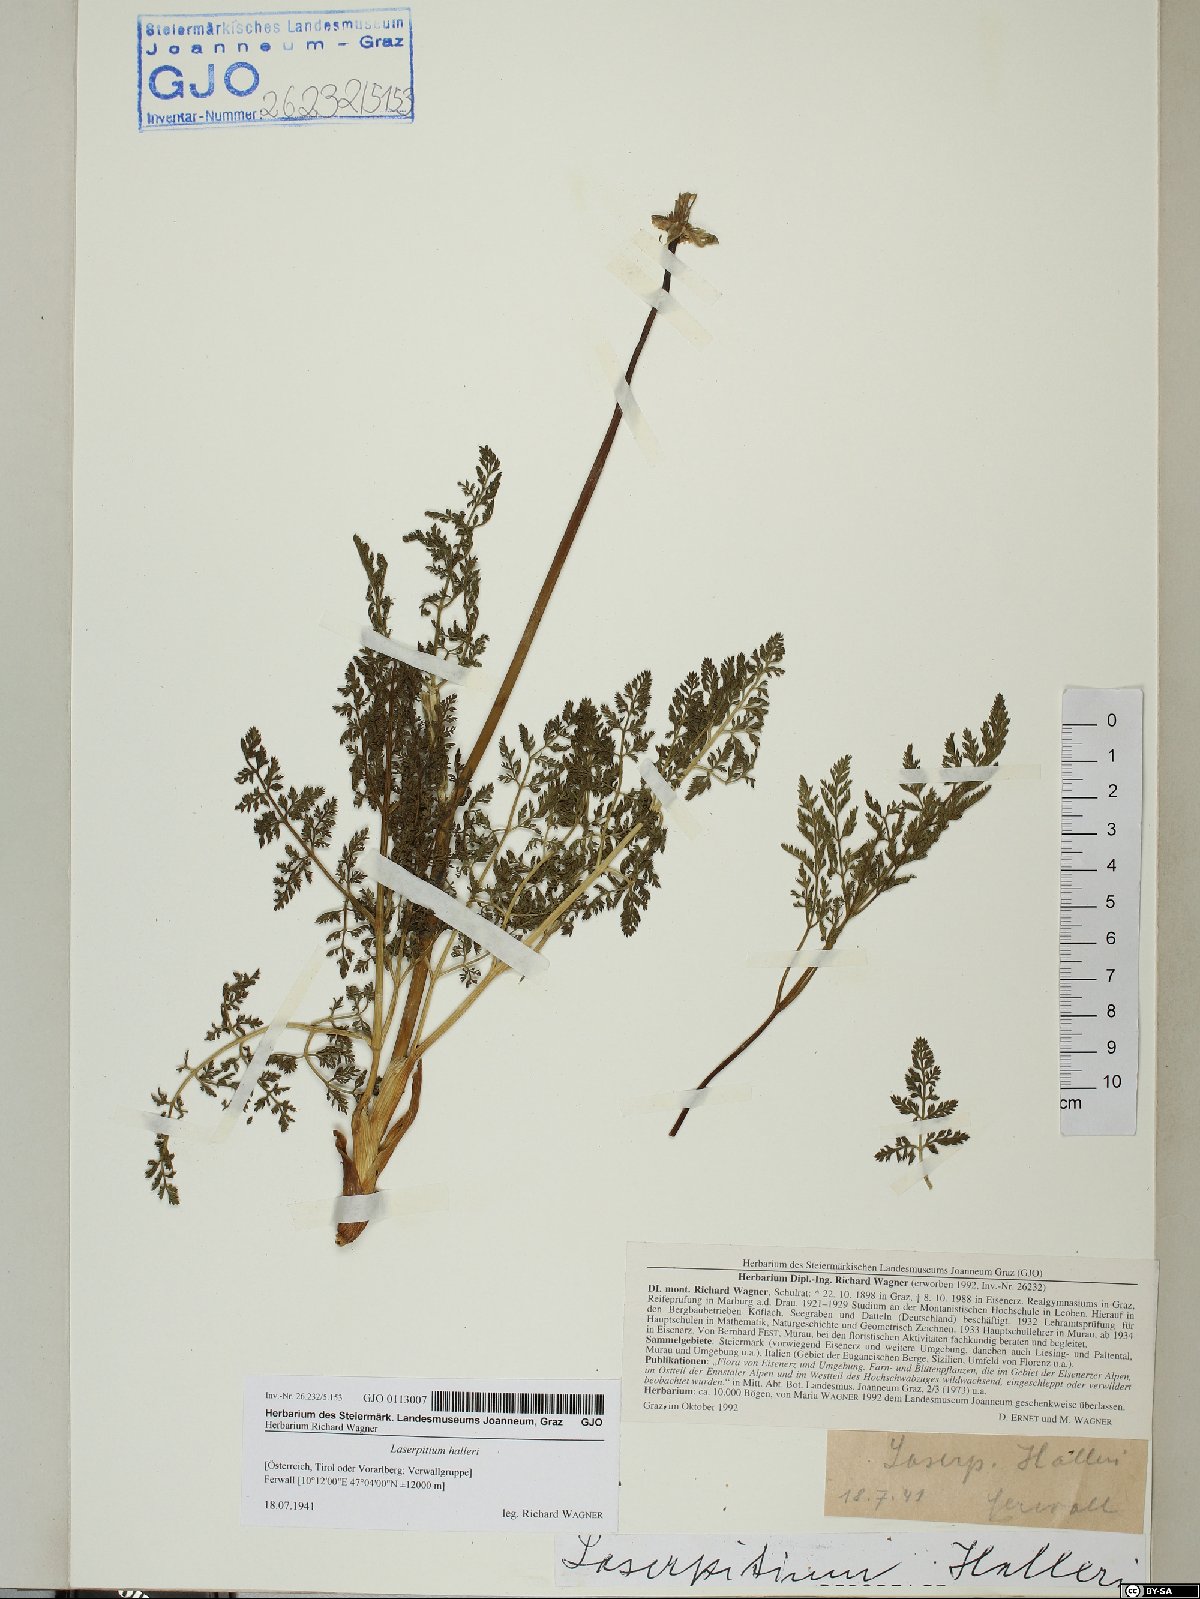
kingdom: Plantae
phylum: Tracheophyta
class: Magnoliopsida
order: Apiales
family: Apiaceae
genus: Laserpitium
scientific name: Laserpitium halleri
